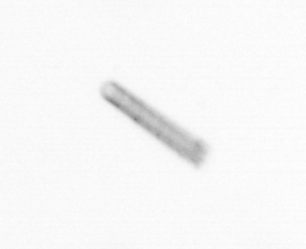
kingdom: Chromista
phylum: Ochrophyta
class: Bacillariophyceae
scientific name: Bacillariophyceae
